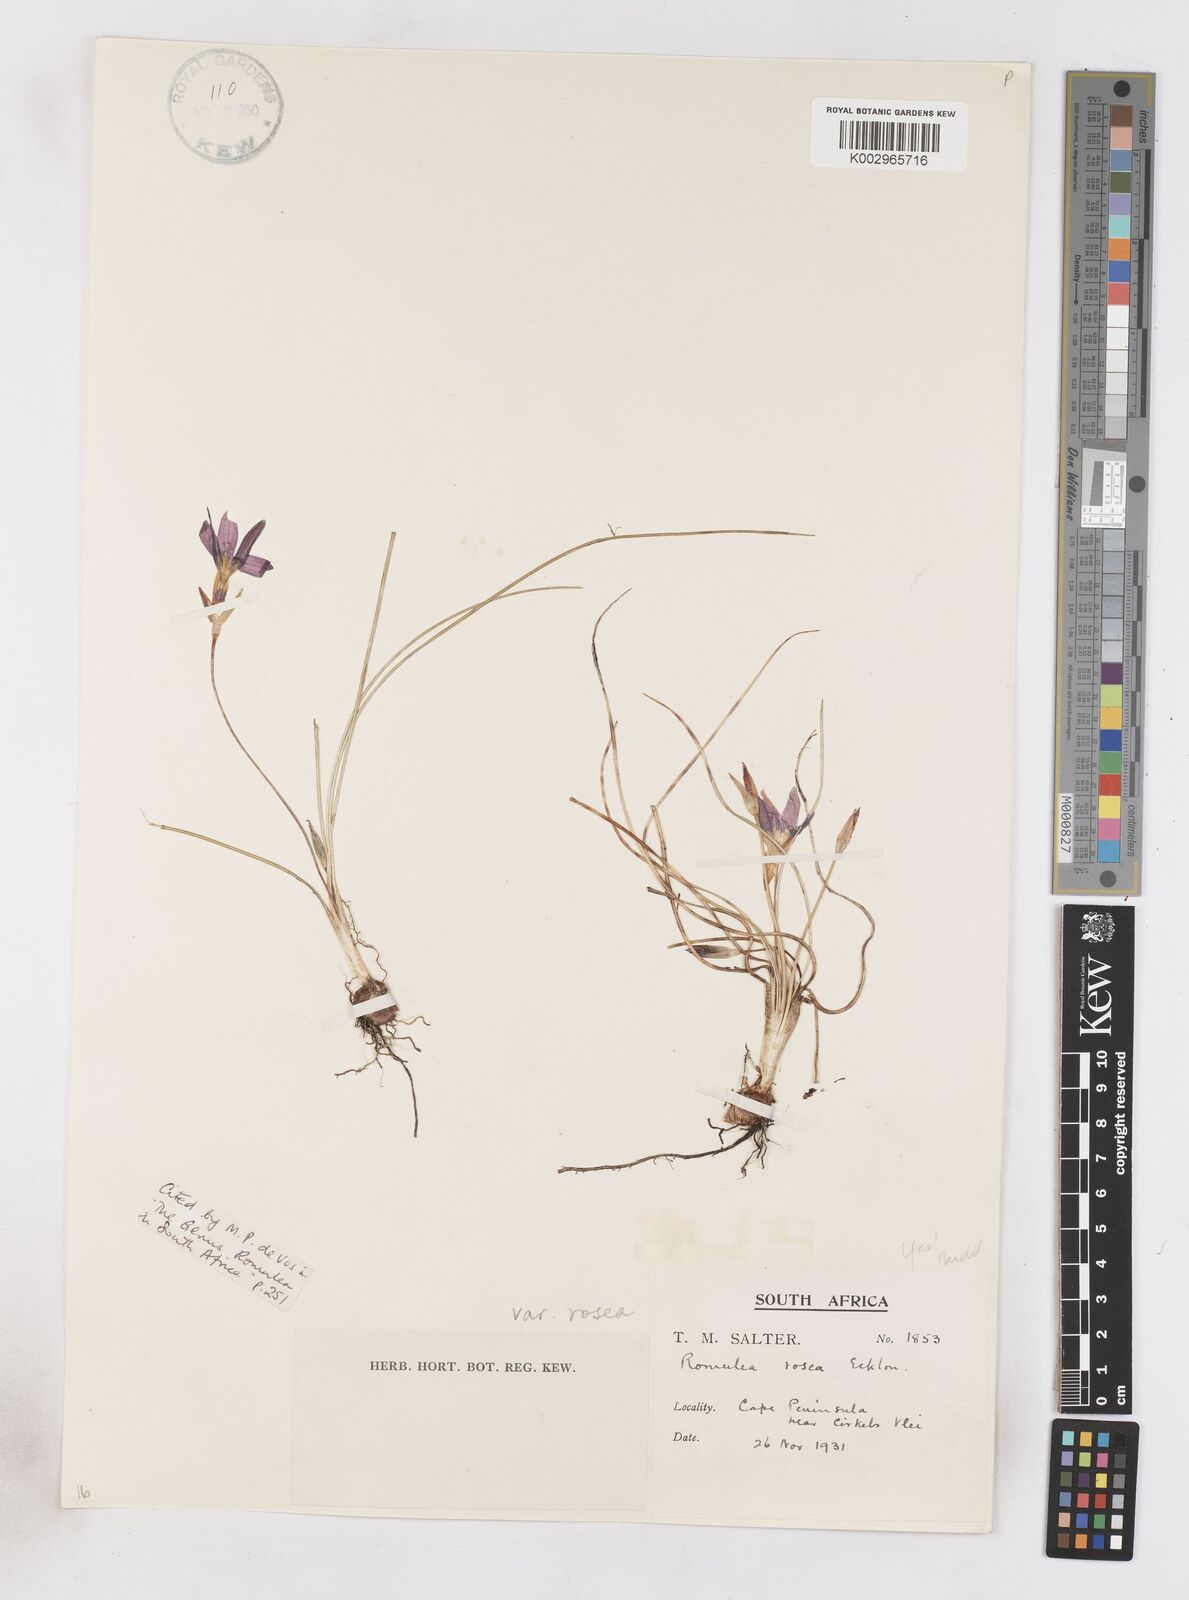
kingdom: Plantae
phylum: Tracheophyta
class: Liliopsida
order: Asparagales
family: Iridaceae
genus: Romulea
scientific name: Romulea rosea
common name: Oniongrass
